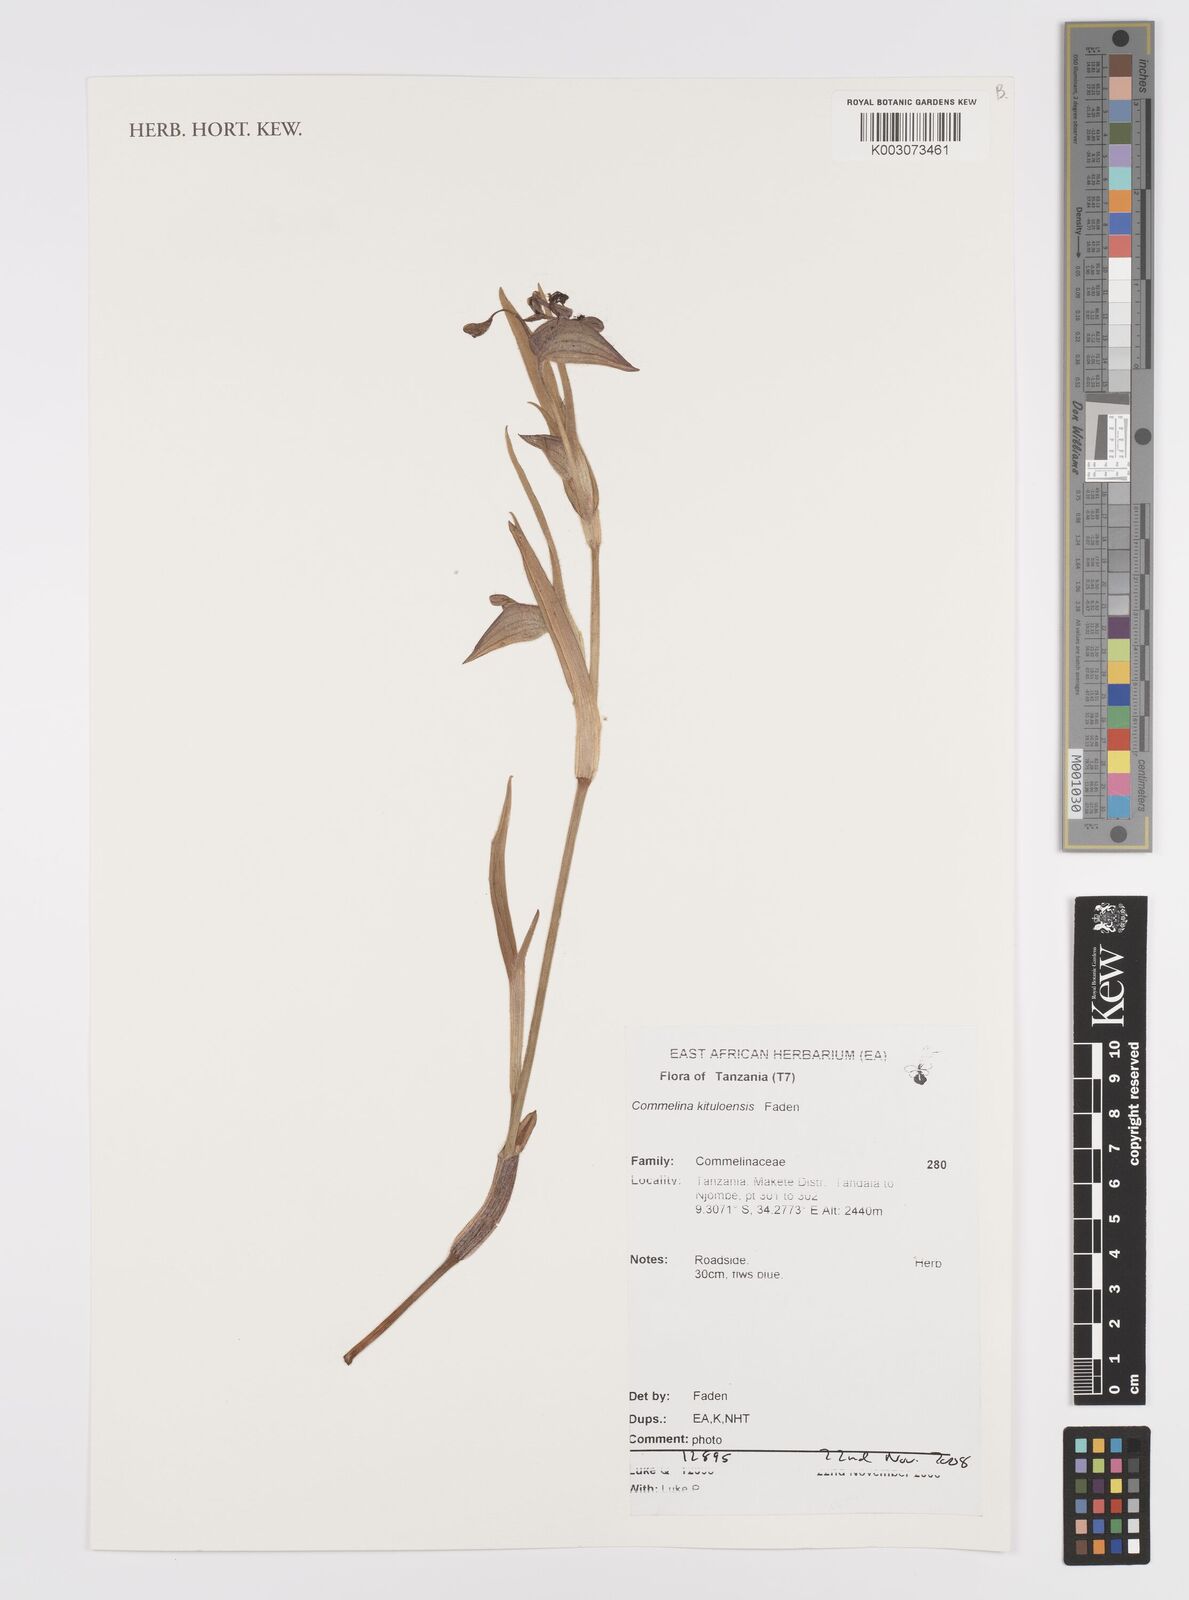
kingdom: Plantae
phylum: Tracheophyta
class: Liliopsida
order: Commelinales
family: Commelinaceae
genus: Commelina
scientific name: Commelina kituloensis
